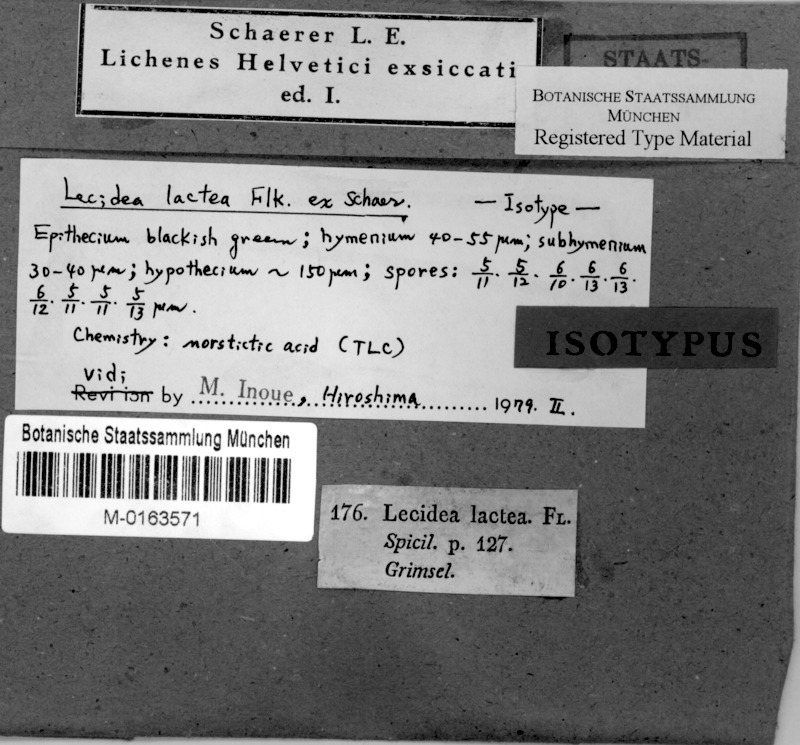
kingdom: Fungi
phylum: Ascomycota
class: Lecanoromycetes
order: Lecideales
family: Lecideaceae
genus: Lecidea
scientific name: Lecidea lapicida
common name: Gray-orange disk lichen
